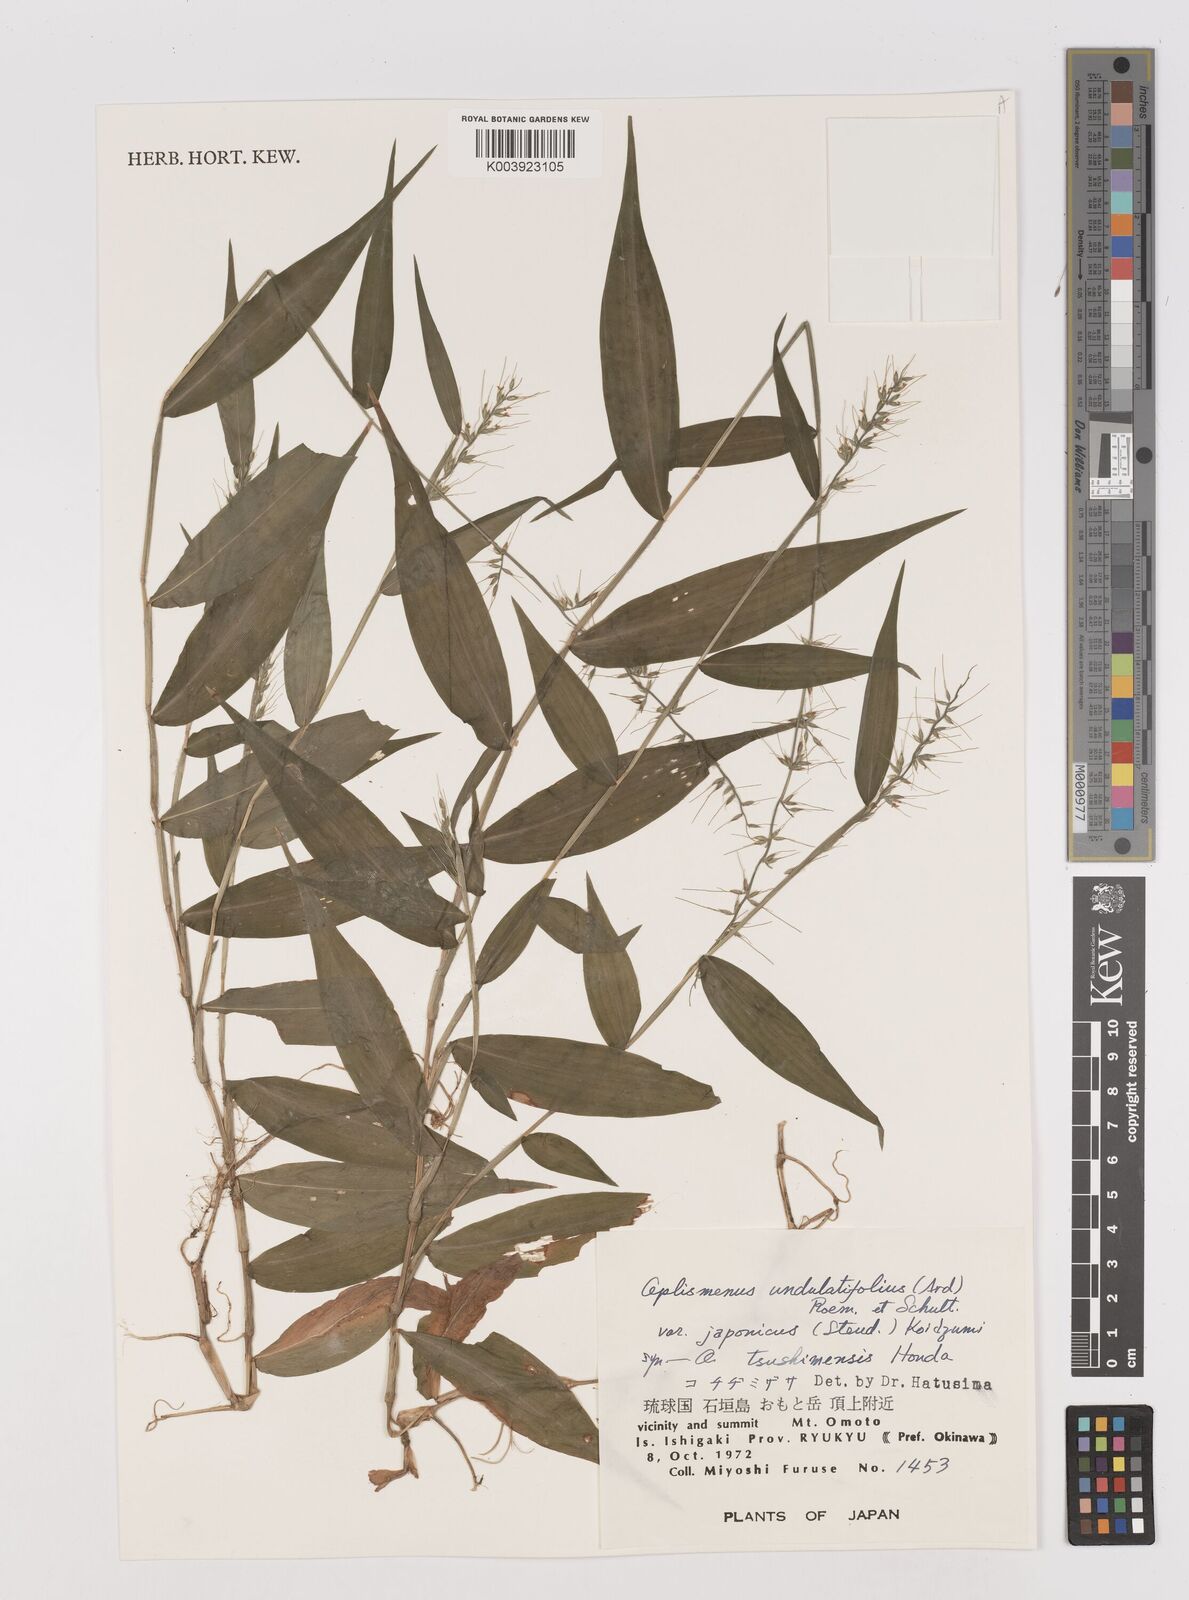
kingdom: Plantae
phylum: Tracheophyta
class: Liliopsida
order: Poales
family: Poaceae
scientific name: Poaceae
